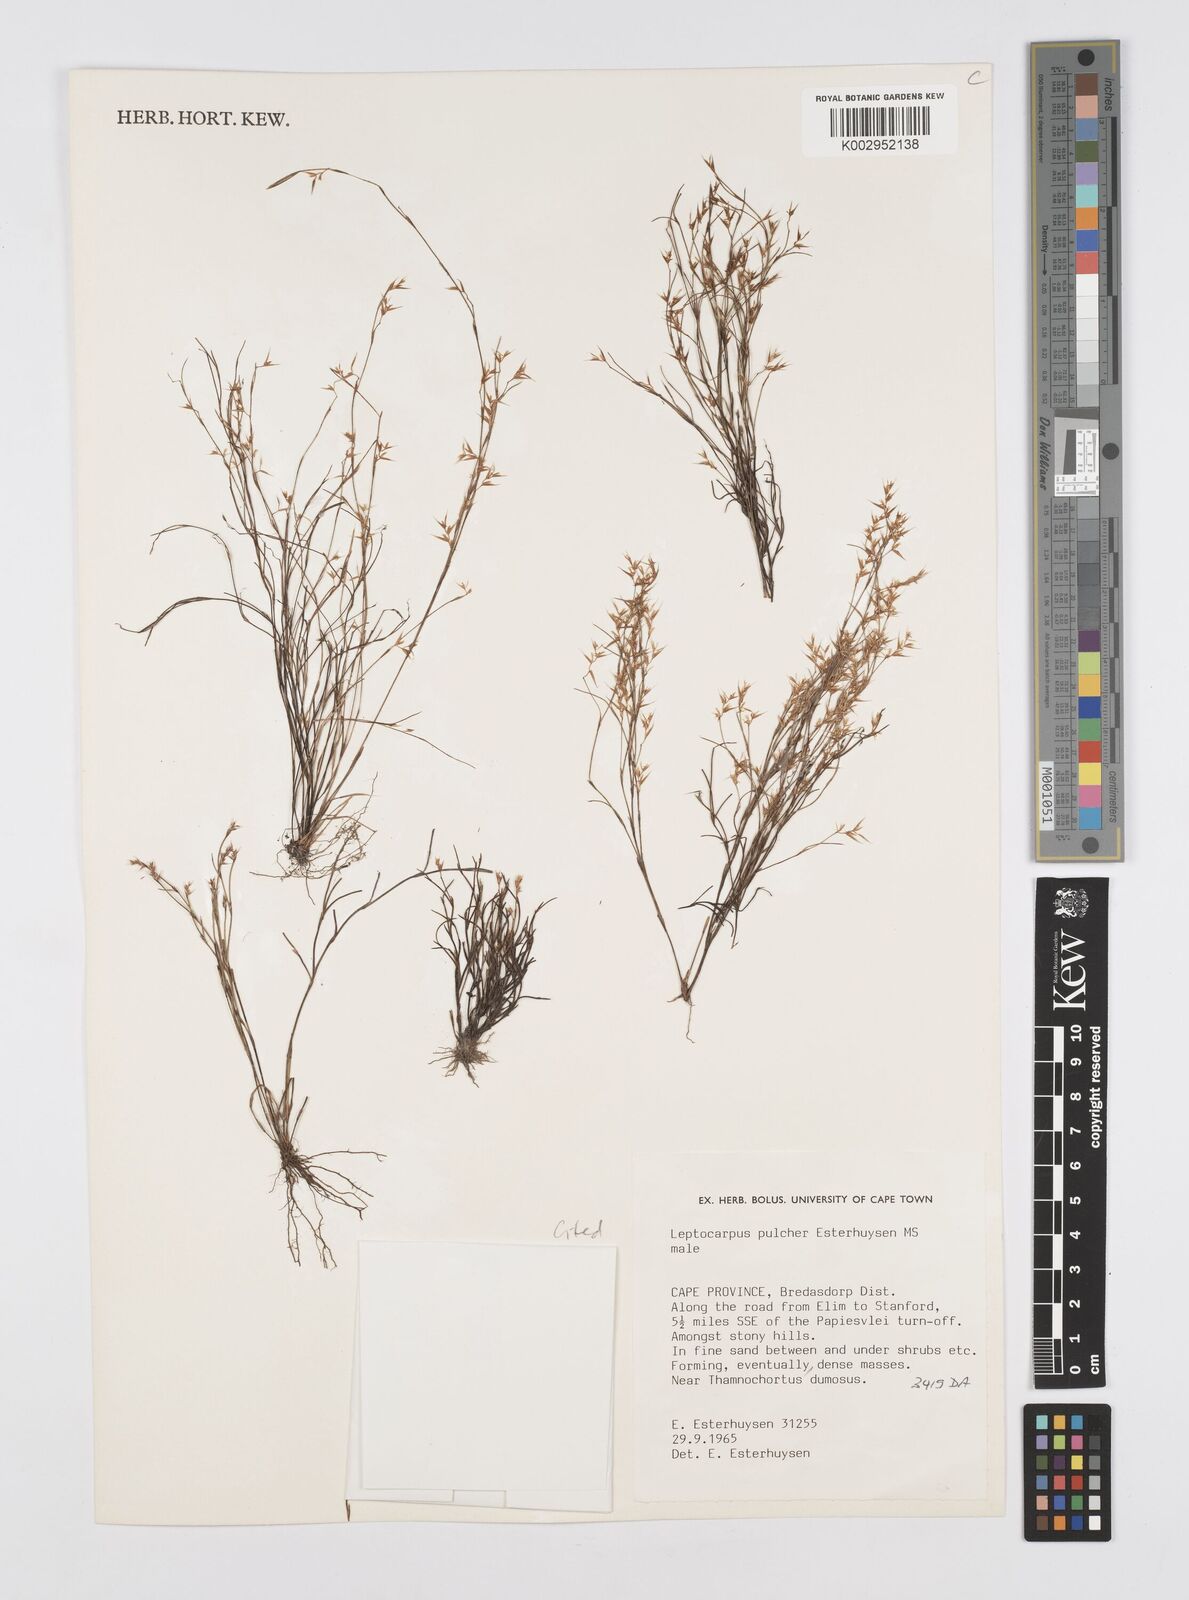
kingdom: Plantae
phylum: Tracheophyta
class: Liliopsida
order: Poales
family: Restionaceae
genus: Restio
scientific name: Restio pulcher
